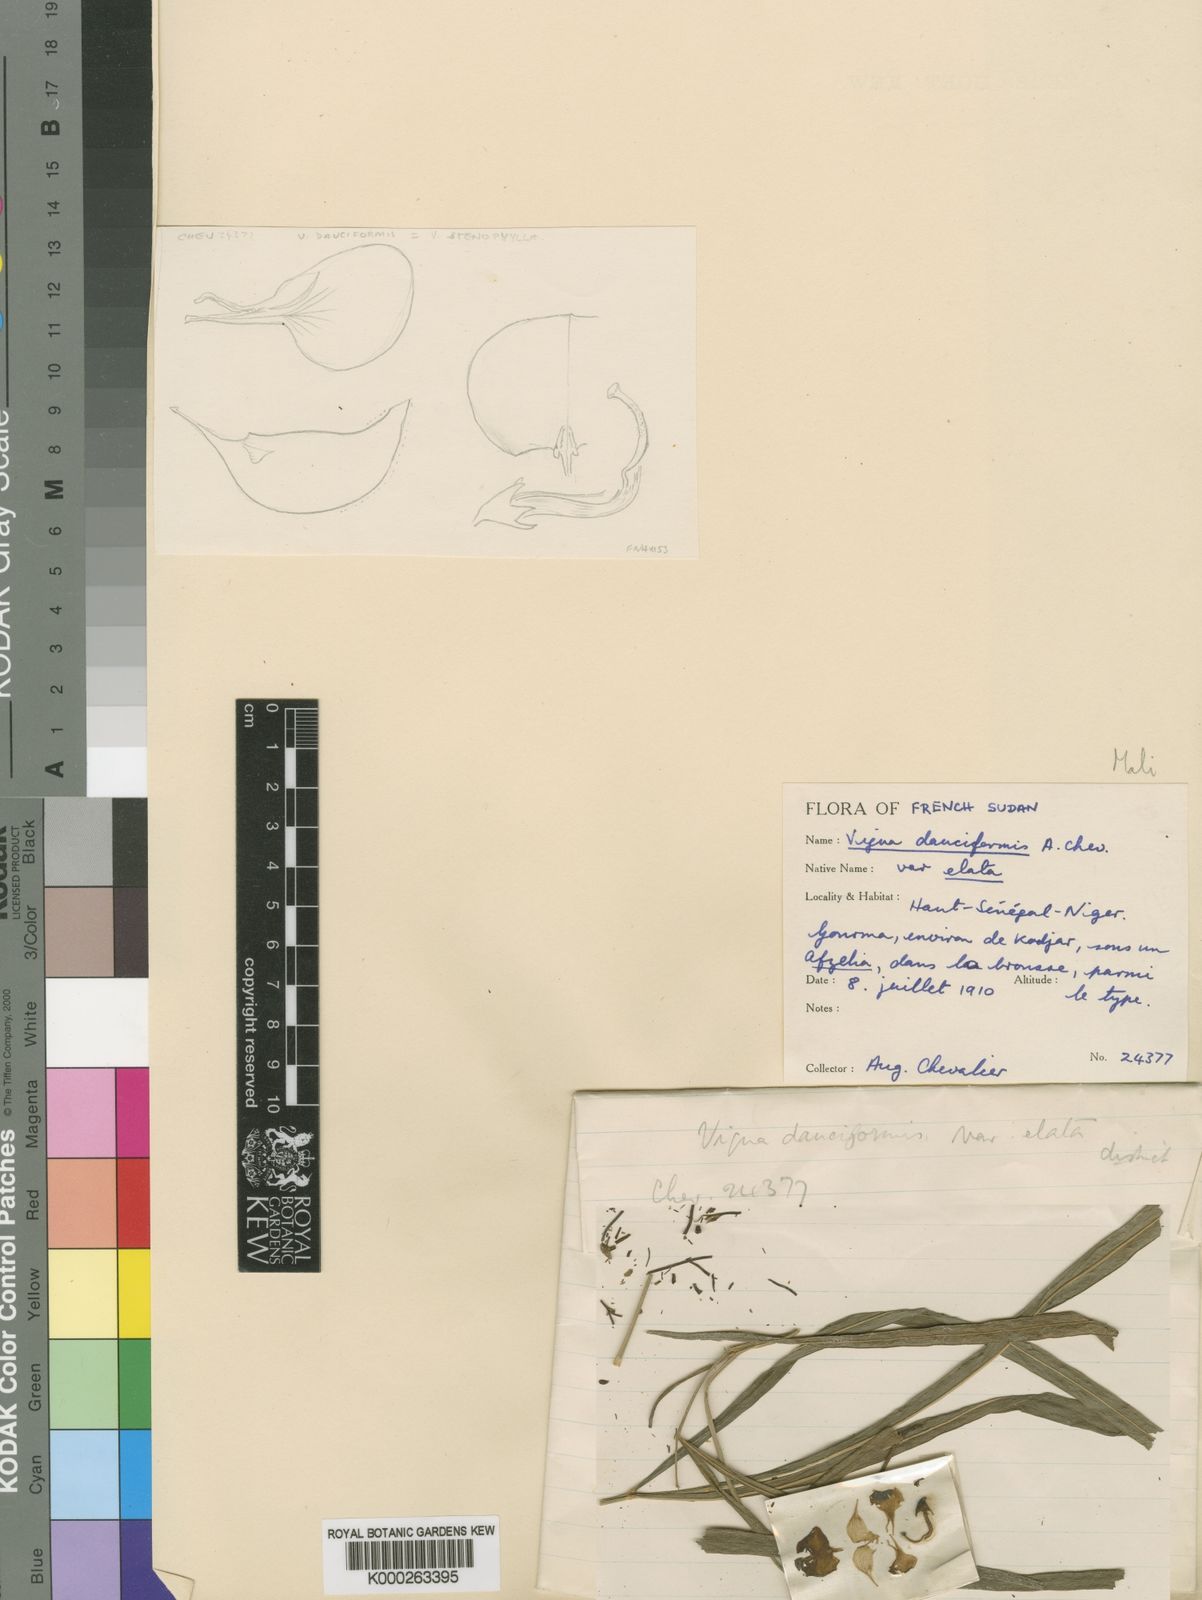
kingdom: Plantae
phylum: Tracheophyta
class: Magnoliopsida
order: Fabales
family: Fabaceae
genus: Vigna
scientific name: Vigna unguiculata
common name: Cowpea
